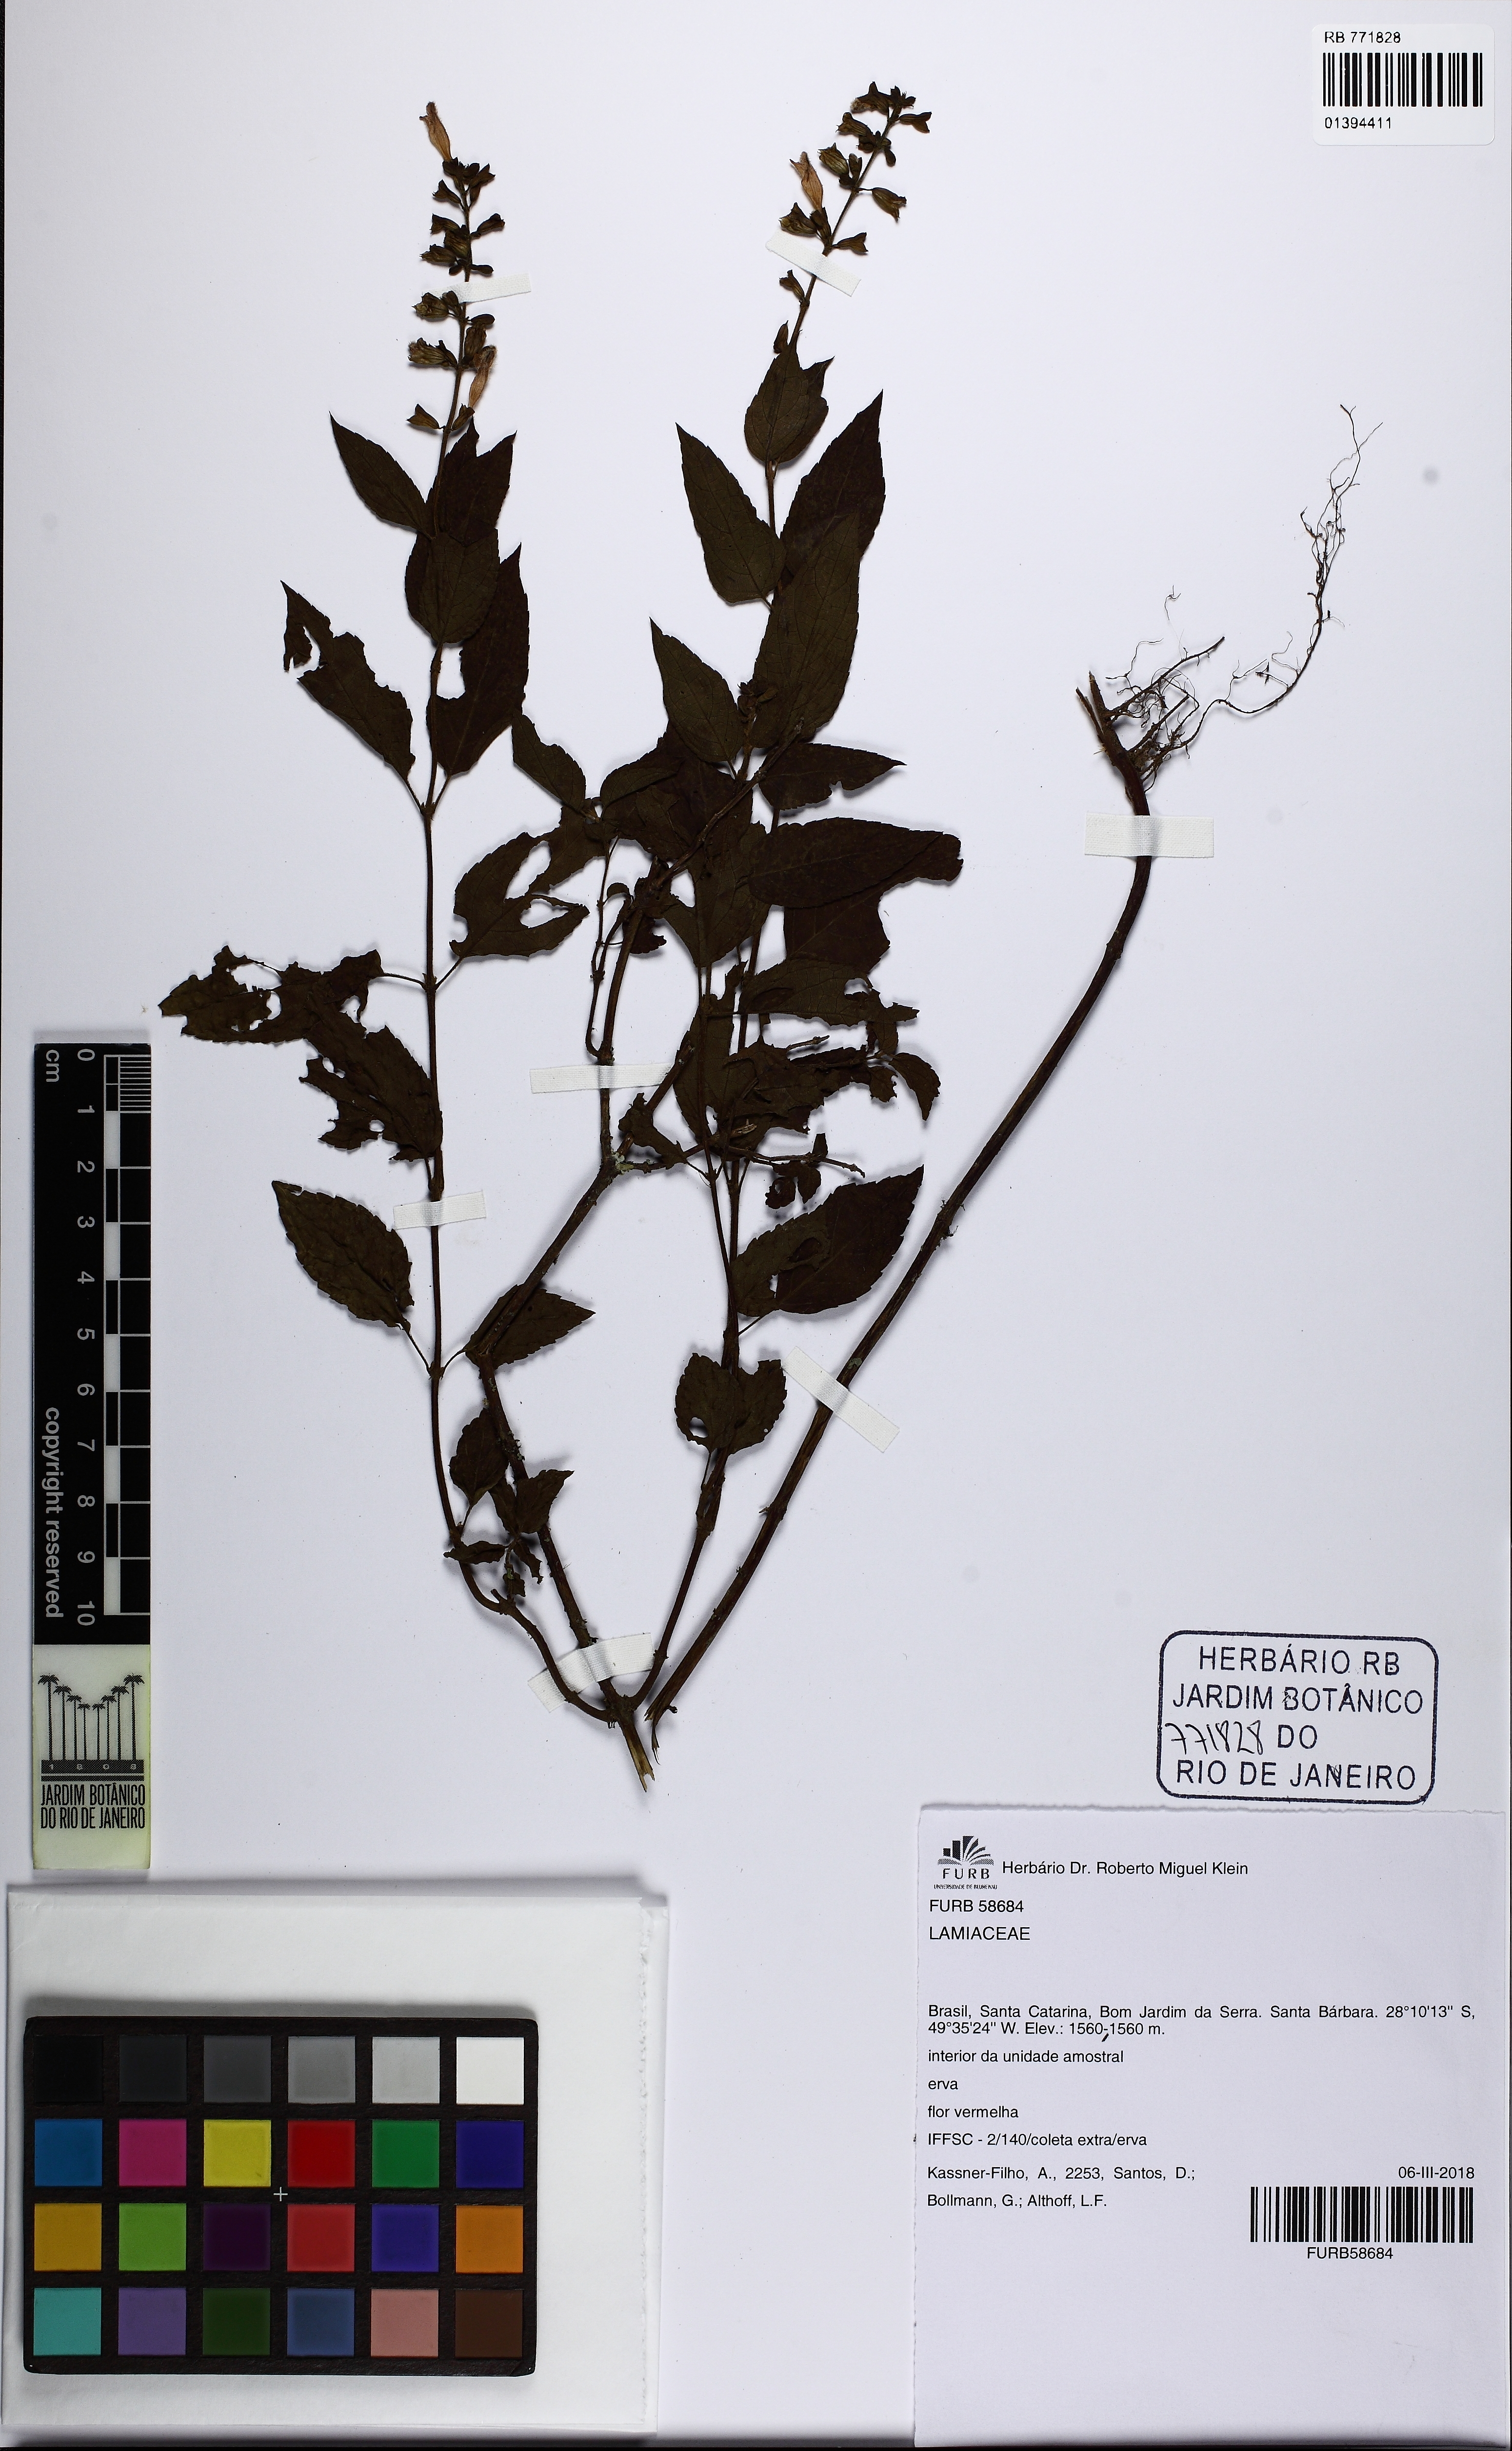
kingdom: Plantae
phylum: Tracheophyta
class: Magnoliopsida
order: Lamiales
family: Lamiaceae
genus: Salvia
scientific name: Salvia melissiflora
